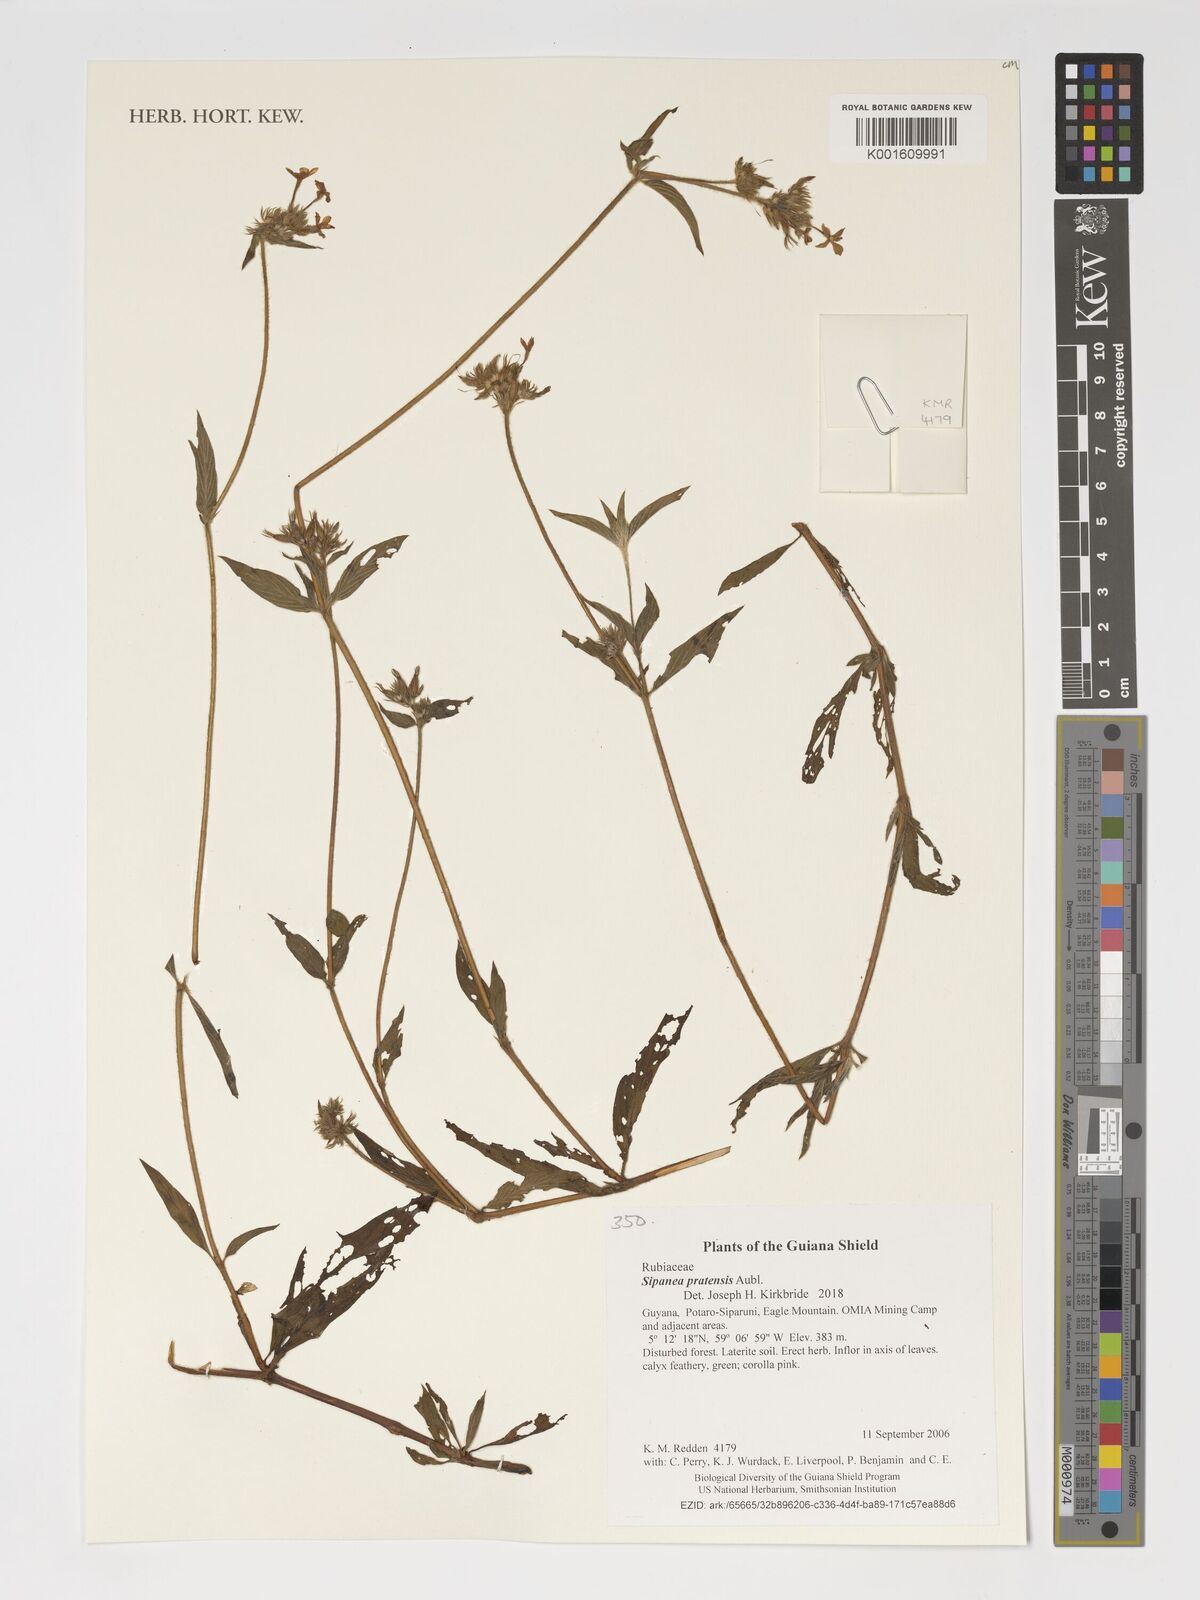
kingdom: Plantae
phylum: Tracheophyta
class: Magnoliopsida
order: Gentianales
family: Rubiaceae
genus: Sipanea
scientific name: Sipanea pratensis
